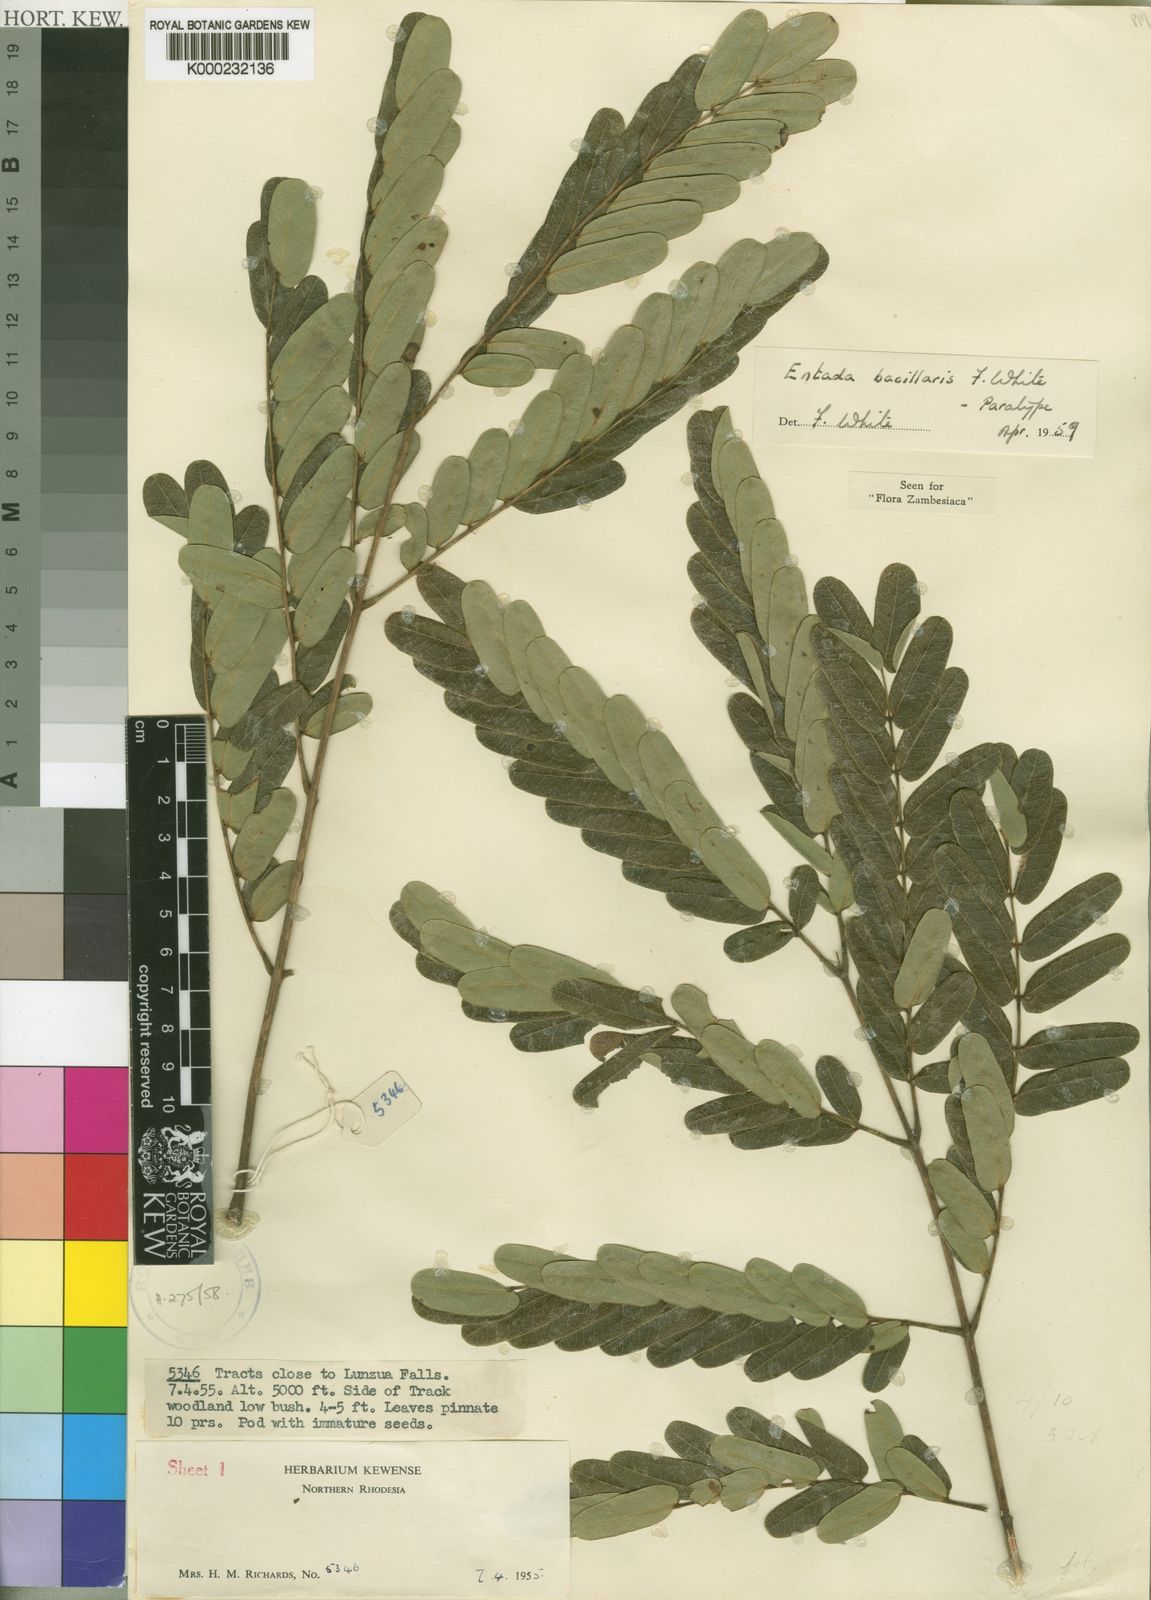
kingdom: Plantae
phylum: Tracheophyta
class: Magnoliopsida
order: Fabales
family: Fabaceae
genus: Entada
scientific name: Entada bacillaris
